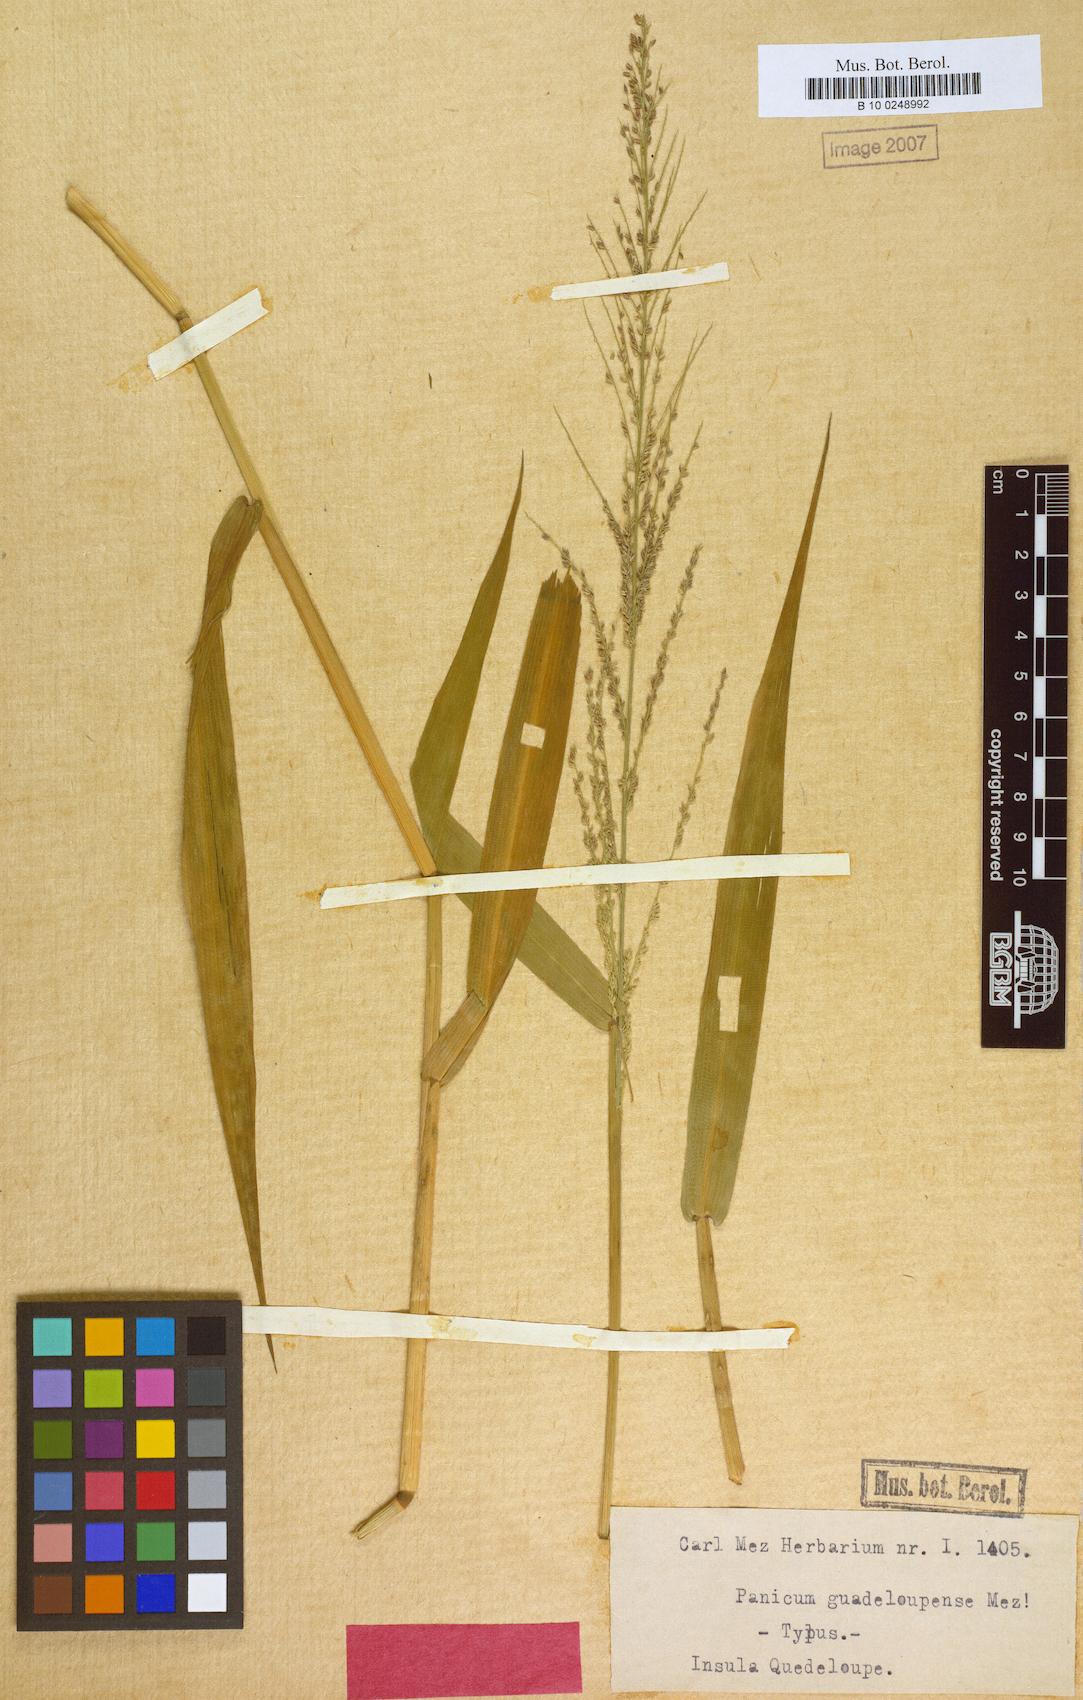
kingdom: Plantae
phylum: Tracheophyta
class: Liliopsida
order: Poales
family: Poaceae
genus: Urochloa
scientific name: Urochloa mutica
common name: Para grass
